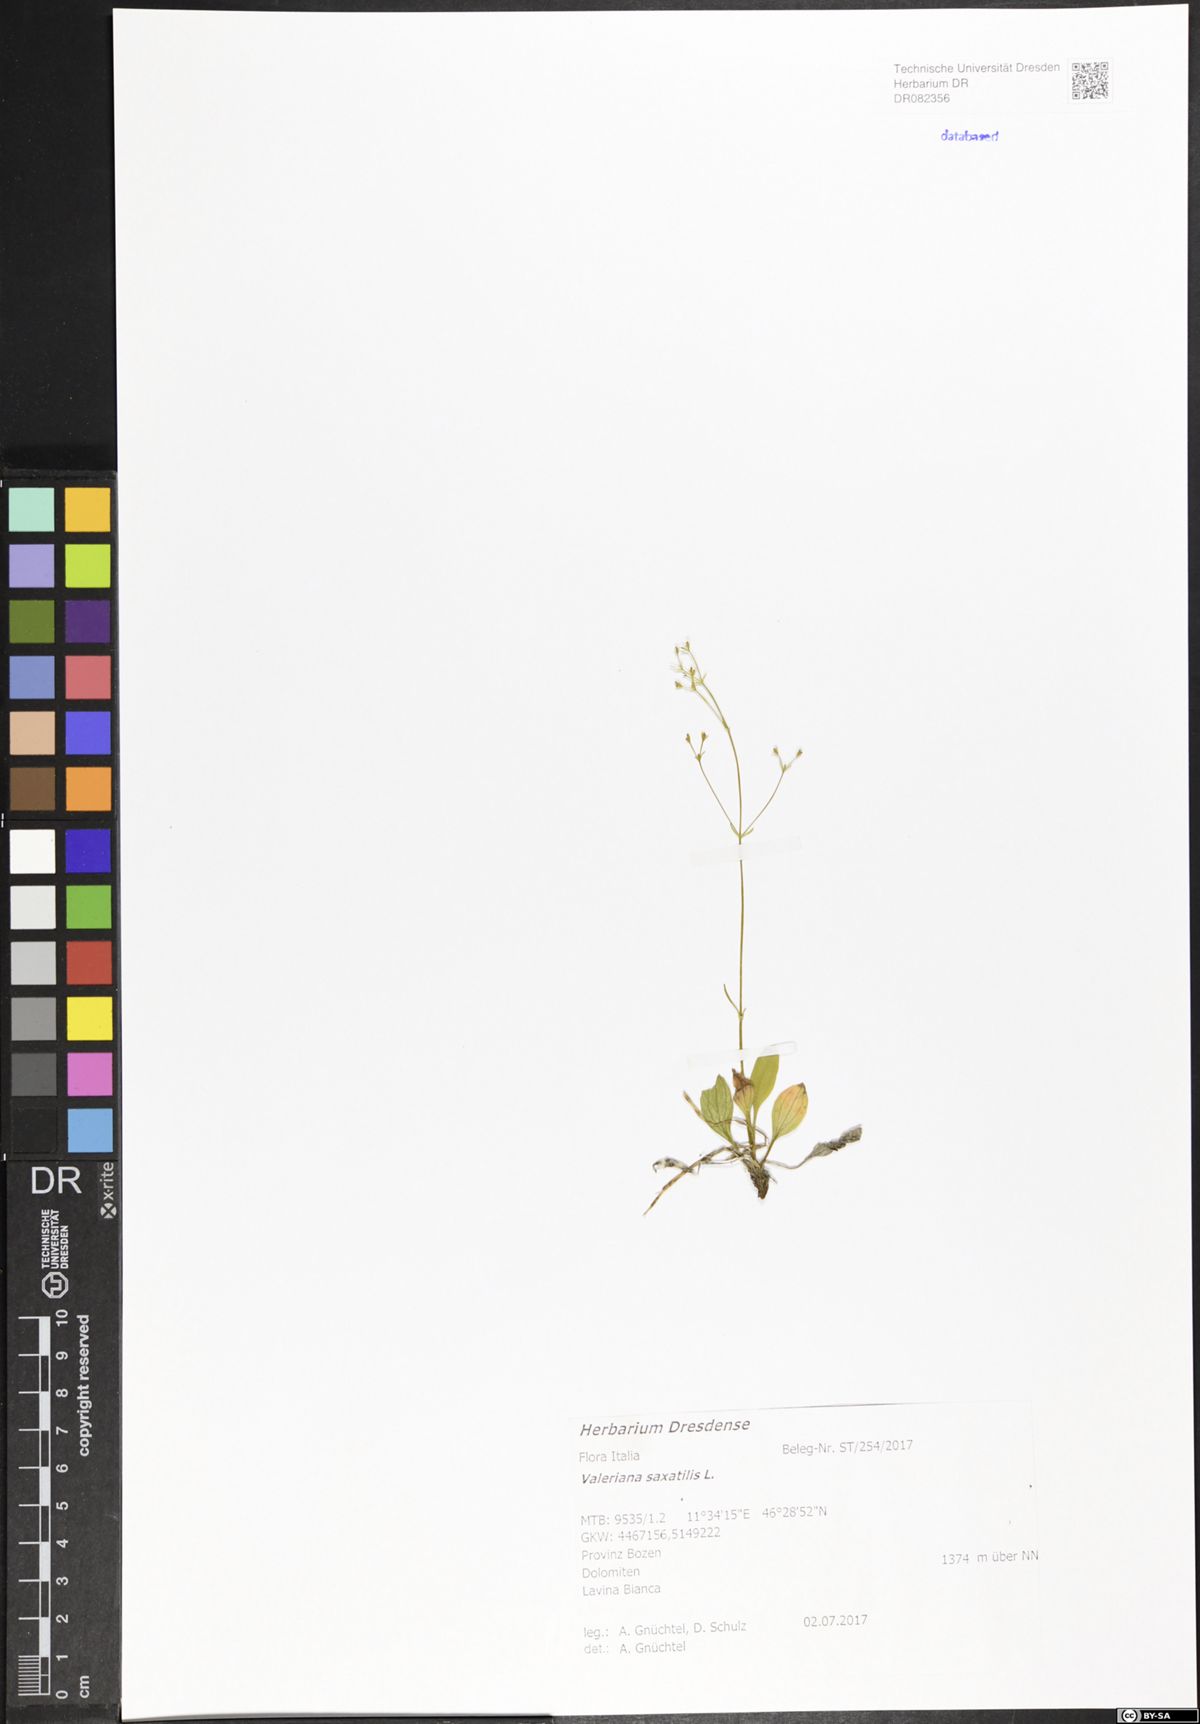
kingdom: Plantae
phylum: Tracheophyta
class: Magnoliopsida
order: Dipsacales
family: Caprifoliaceae
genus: Valeriana
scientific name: Valeriana saxatilis
